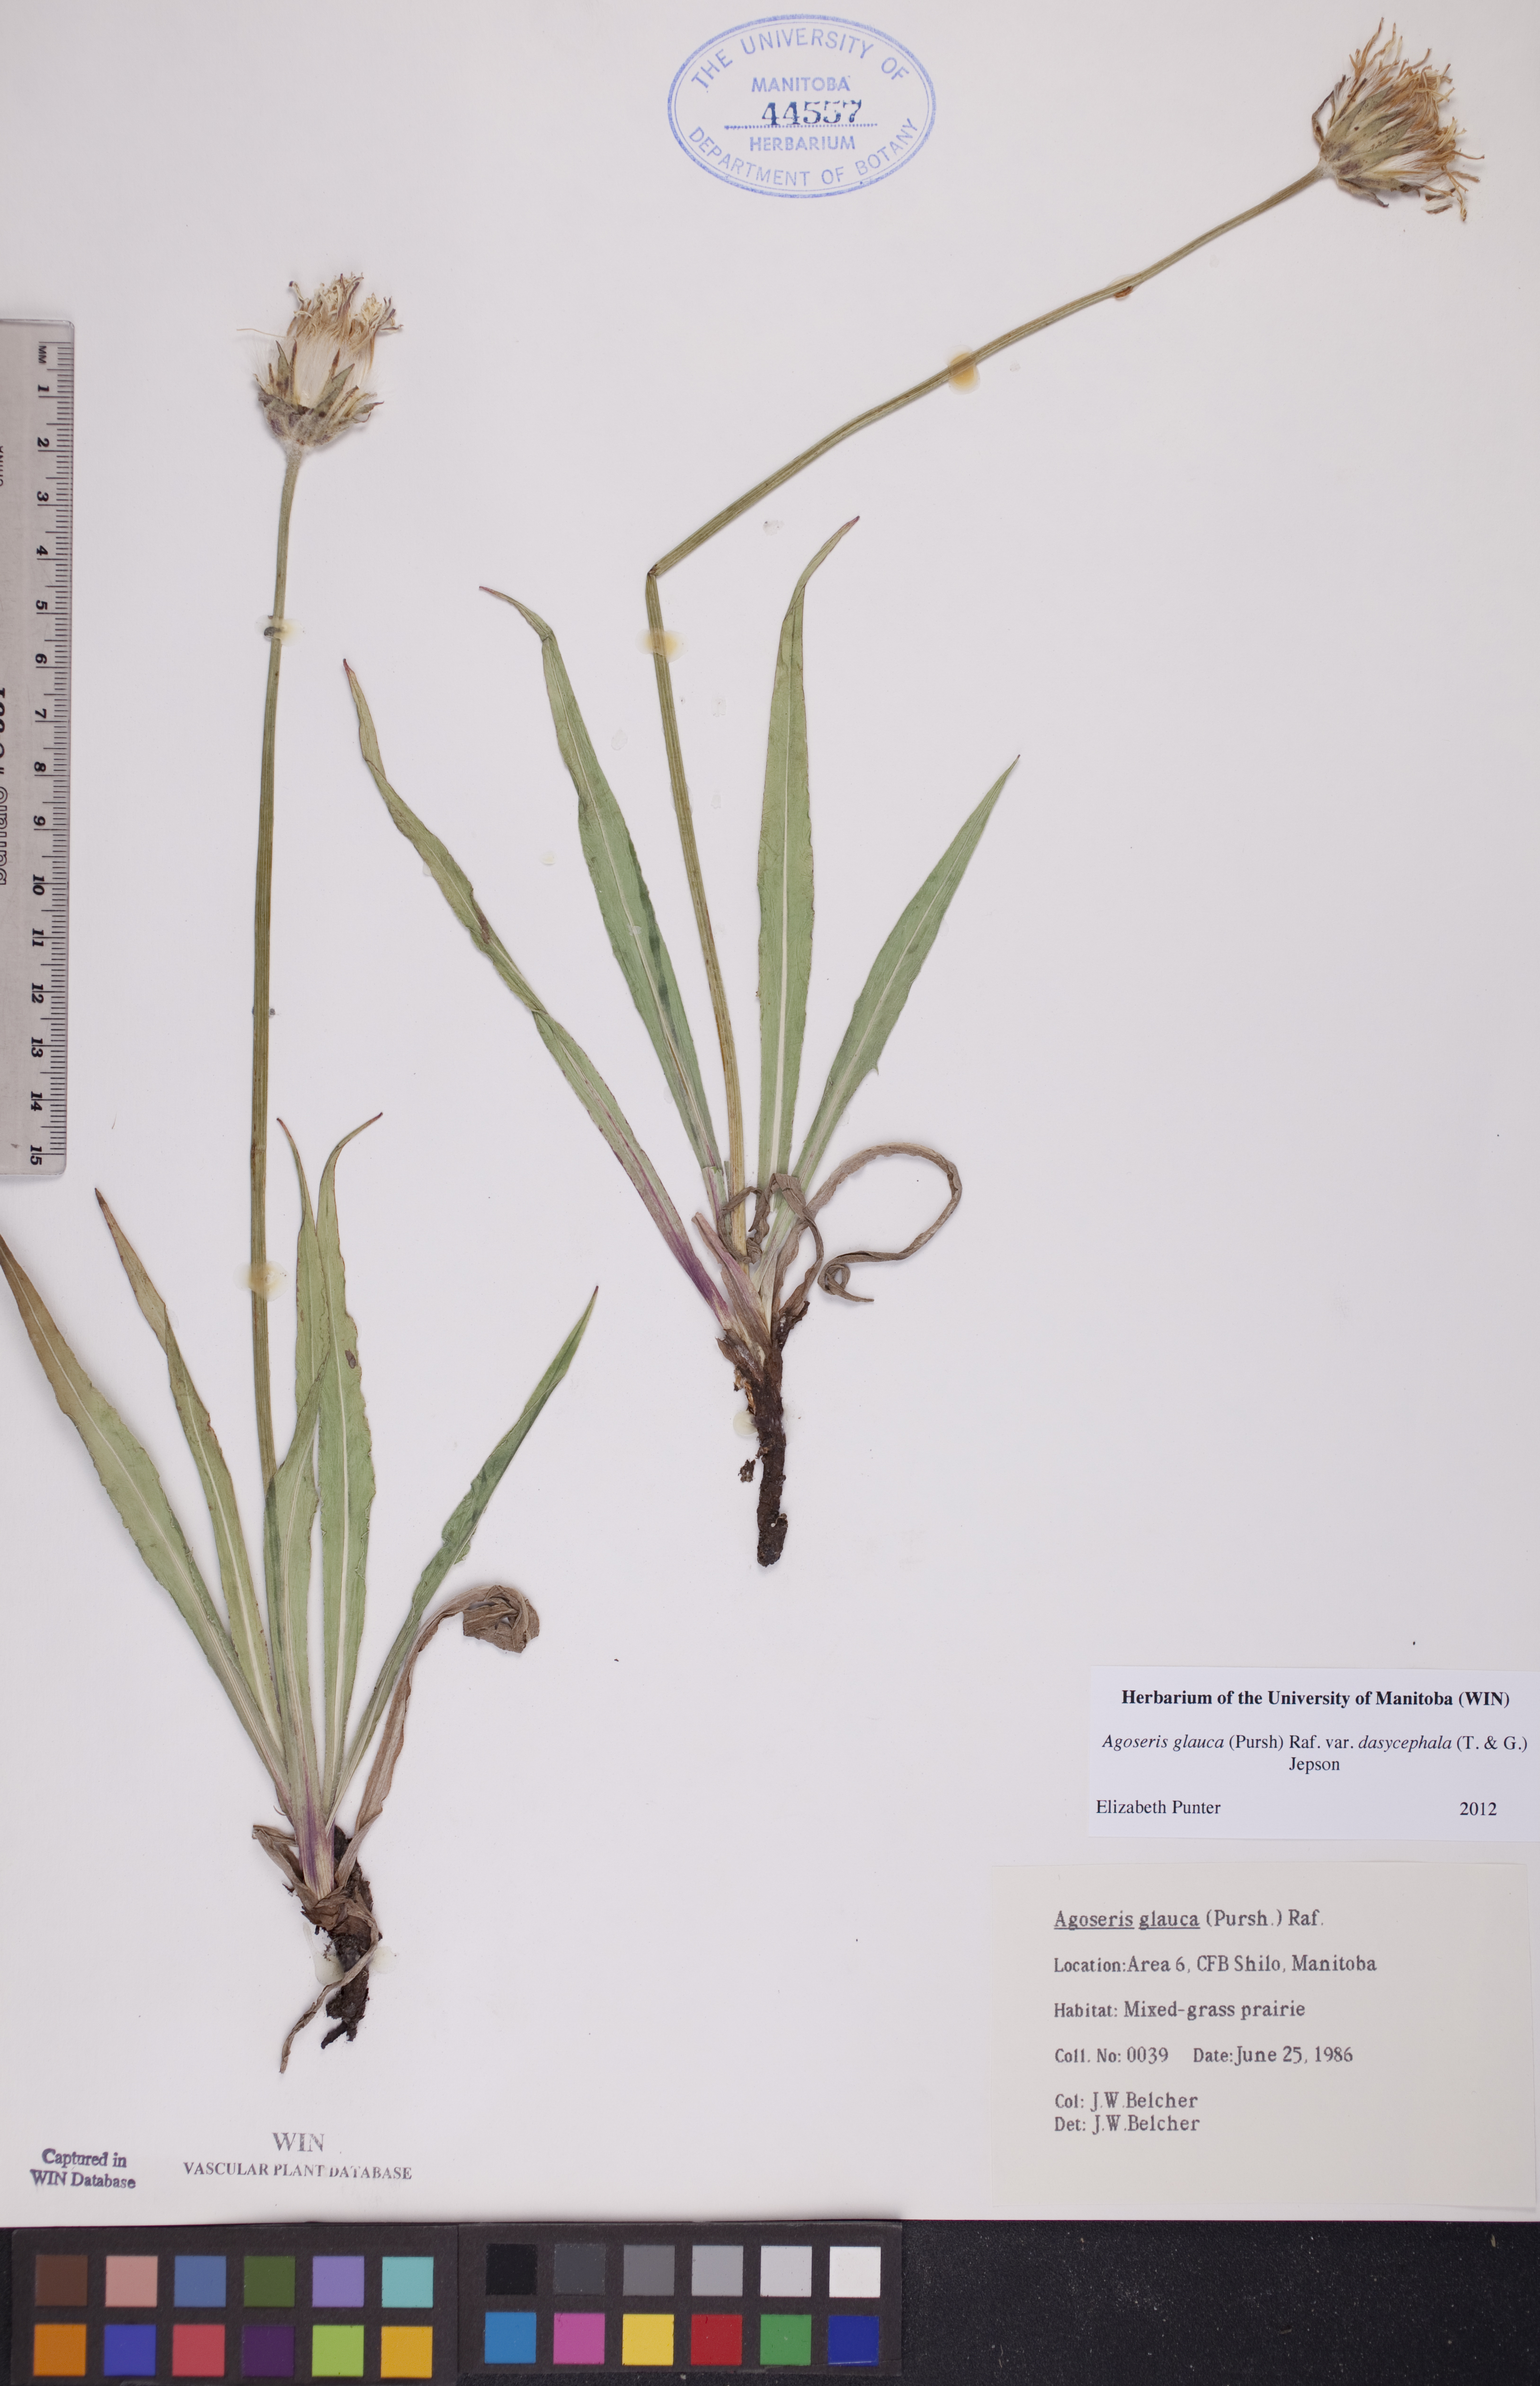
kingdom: Plantae
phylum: Tracheophyta
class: Magnoliopsida
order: Asterales
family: Asteraceae
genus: Agoseris
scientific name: Agoseris glauca
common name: Prairie agoseris
